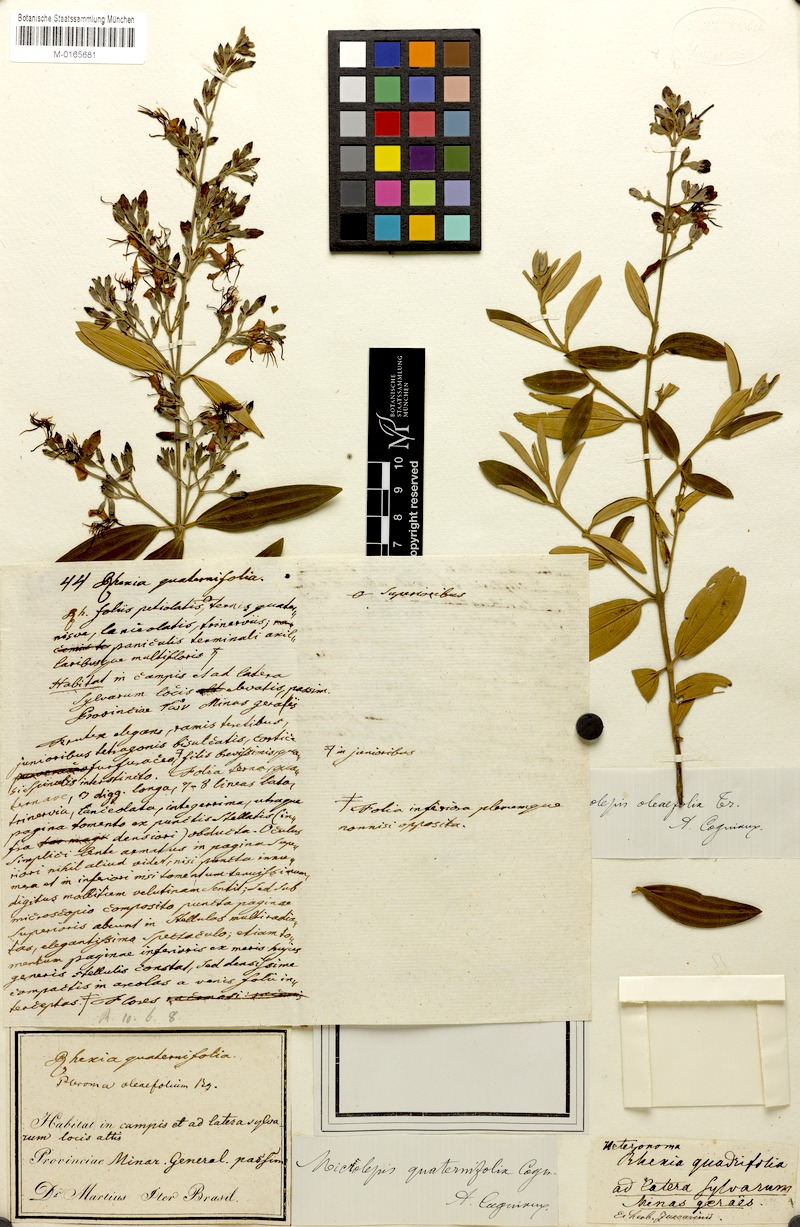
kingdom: Plantae
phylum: Tracheophyta
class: Magnoliopsida
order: Myrtales
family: Melastomataceae
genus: Pleroma
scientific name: Pleroma Microlepis quaternifolia
